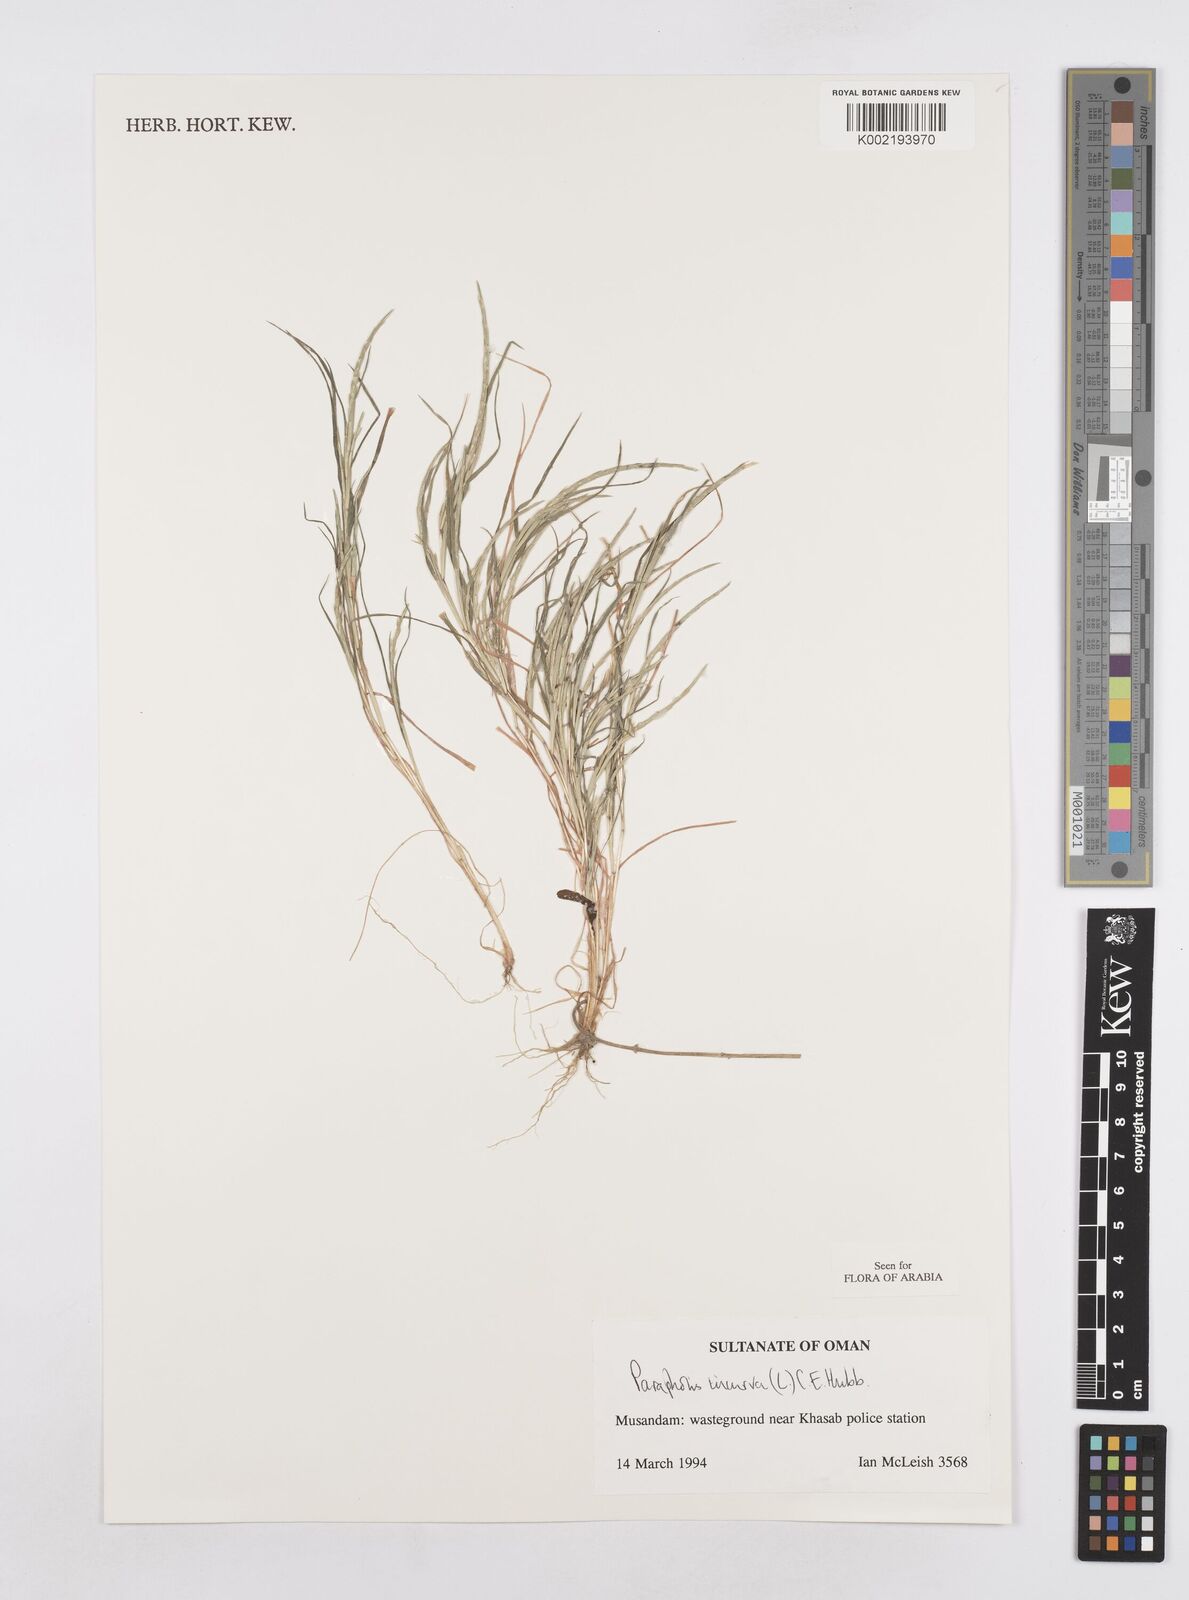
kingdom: Plantae
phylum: Tracheophyta
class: Liliopsida
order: Poales
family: Poaceae
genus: Parapholis
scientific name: Parapholis incurva
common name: Curved sicklegrass
